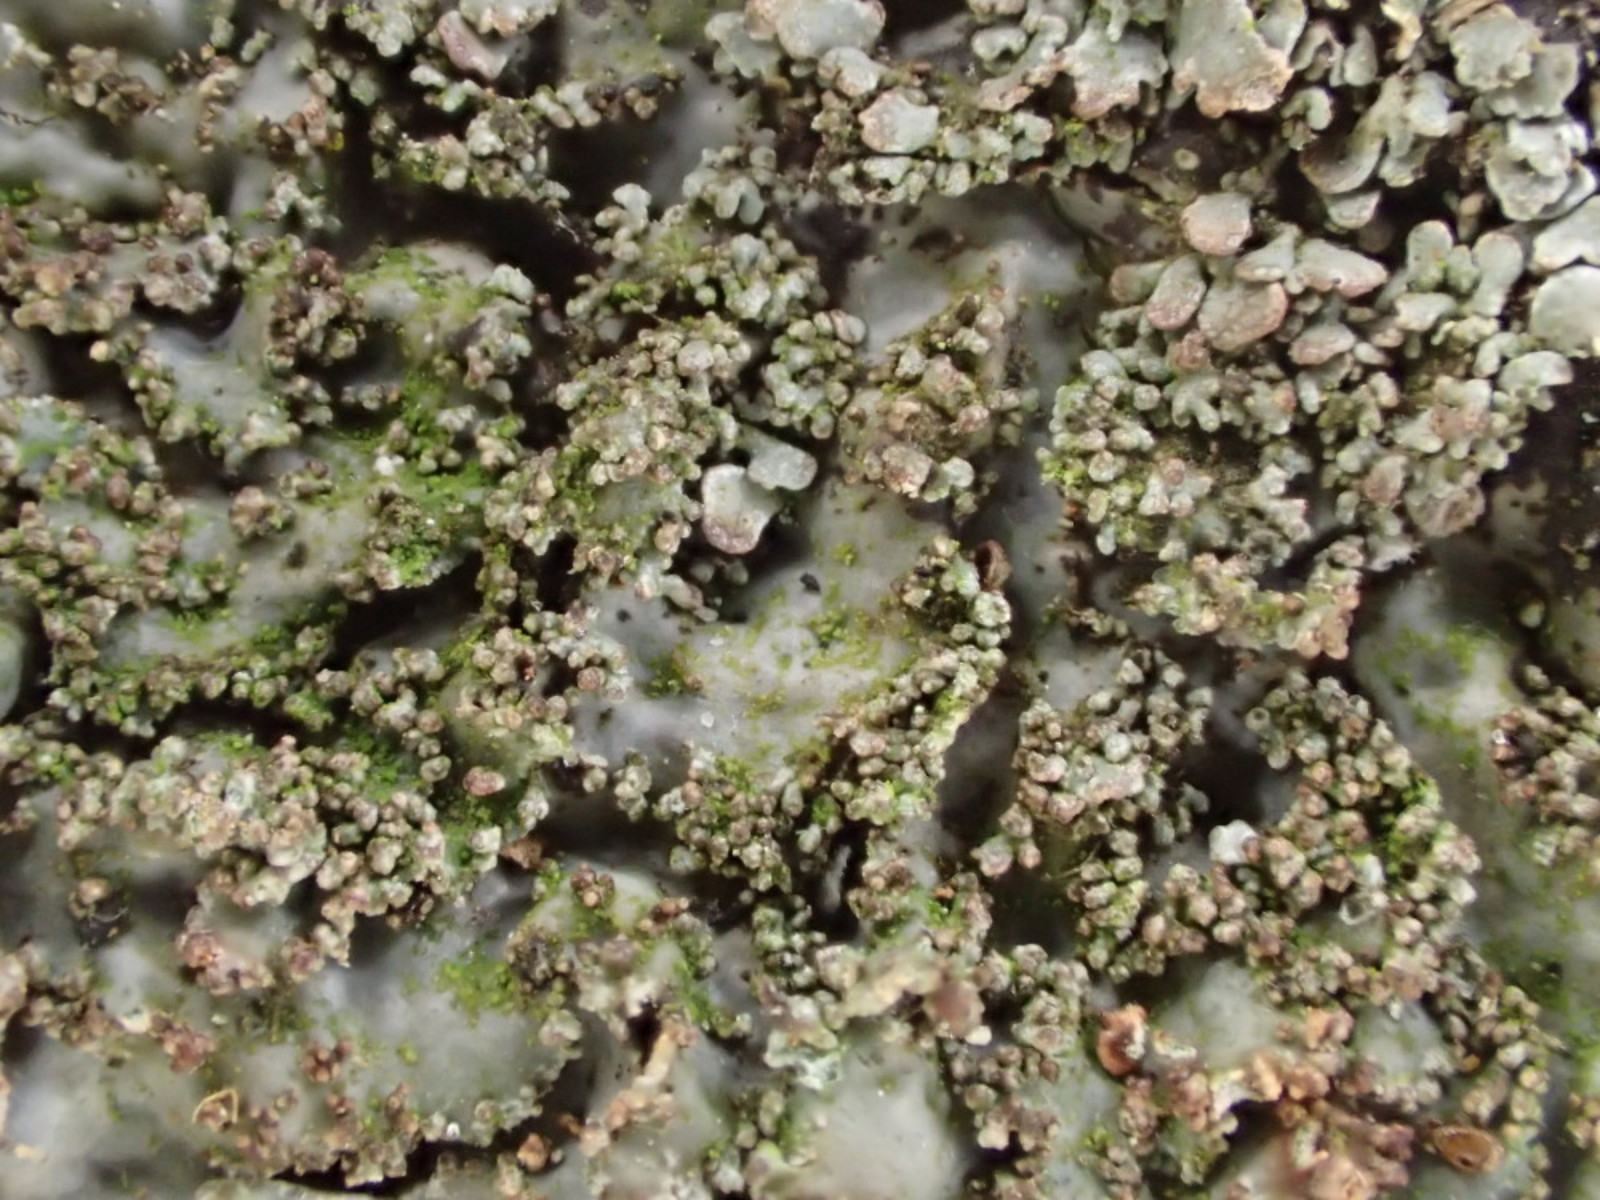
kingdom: Fungi
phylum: Ascomycota
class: Lecanoromycetes
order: Lecanorales
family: Parmeliaceae
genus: Parmelia
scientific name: Parmelia ernstiae
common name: rimstift-skållav
